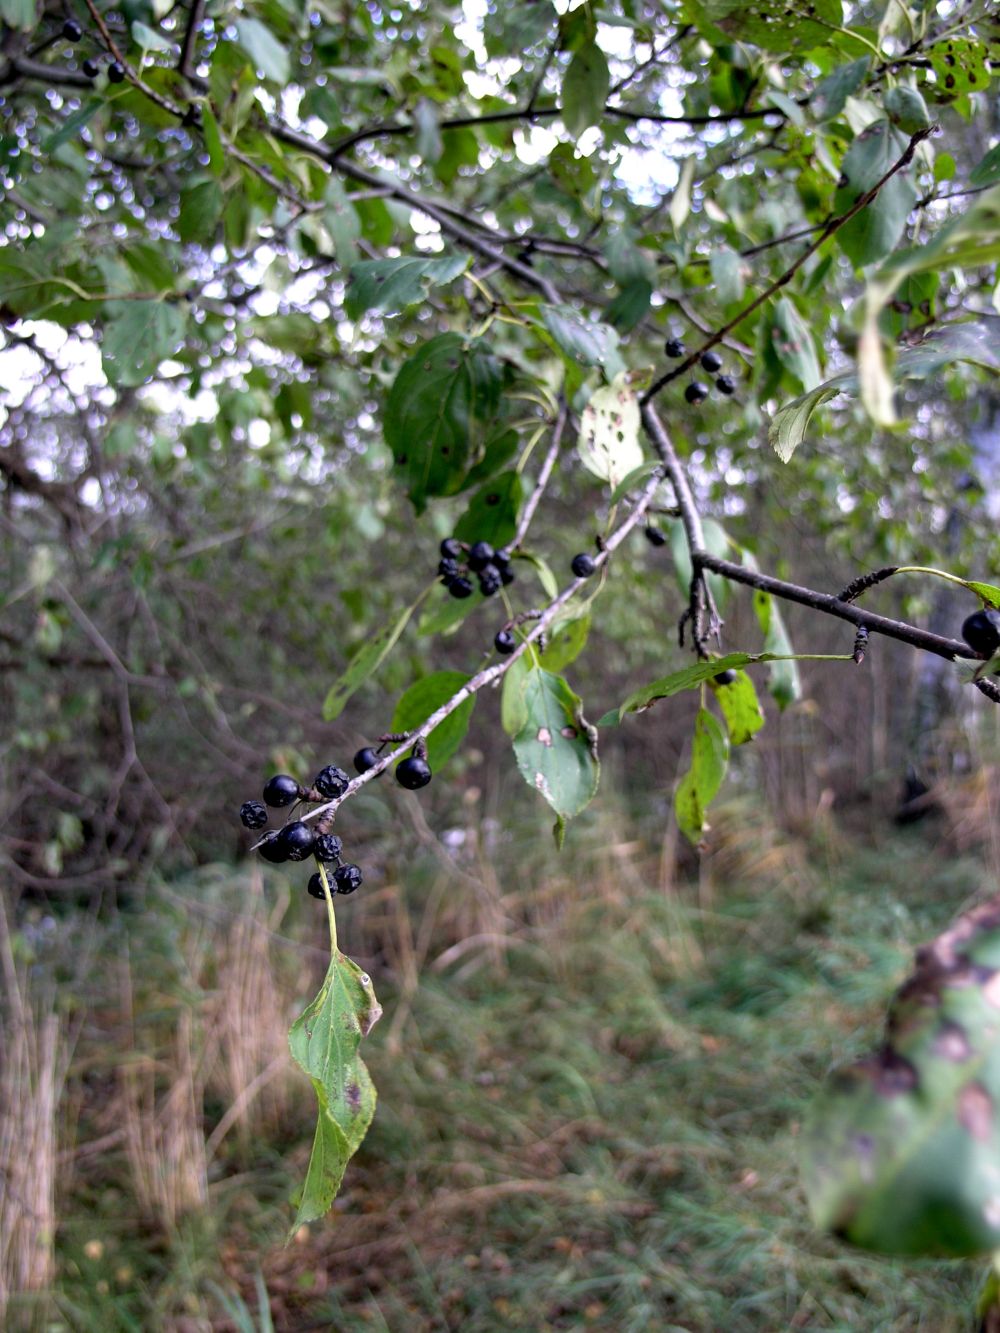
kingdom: Plantae
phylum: Tracheophyta
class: Magnoliopsida
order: Rosales
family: Rhamnaceae
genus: Frangula
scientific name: Frangula alnus
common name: Alder buckthorn
